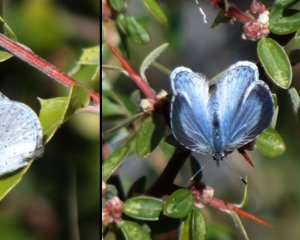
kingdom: Animalia
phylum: Arthropoda
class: Insecta
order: Lepidoptera
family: Lycaenidae
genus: Celastrina
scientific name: Celastrina ladon
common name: Spring Azure
